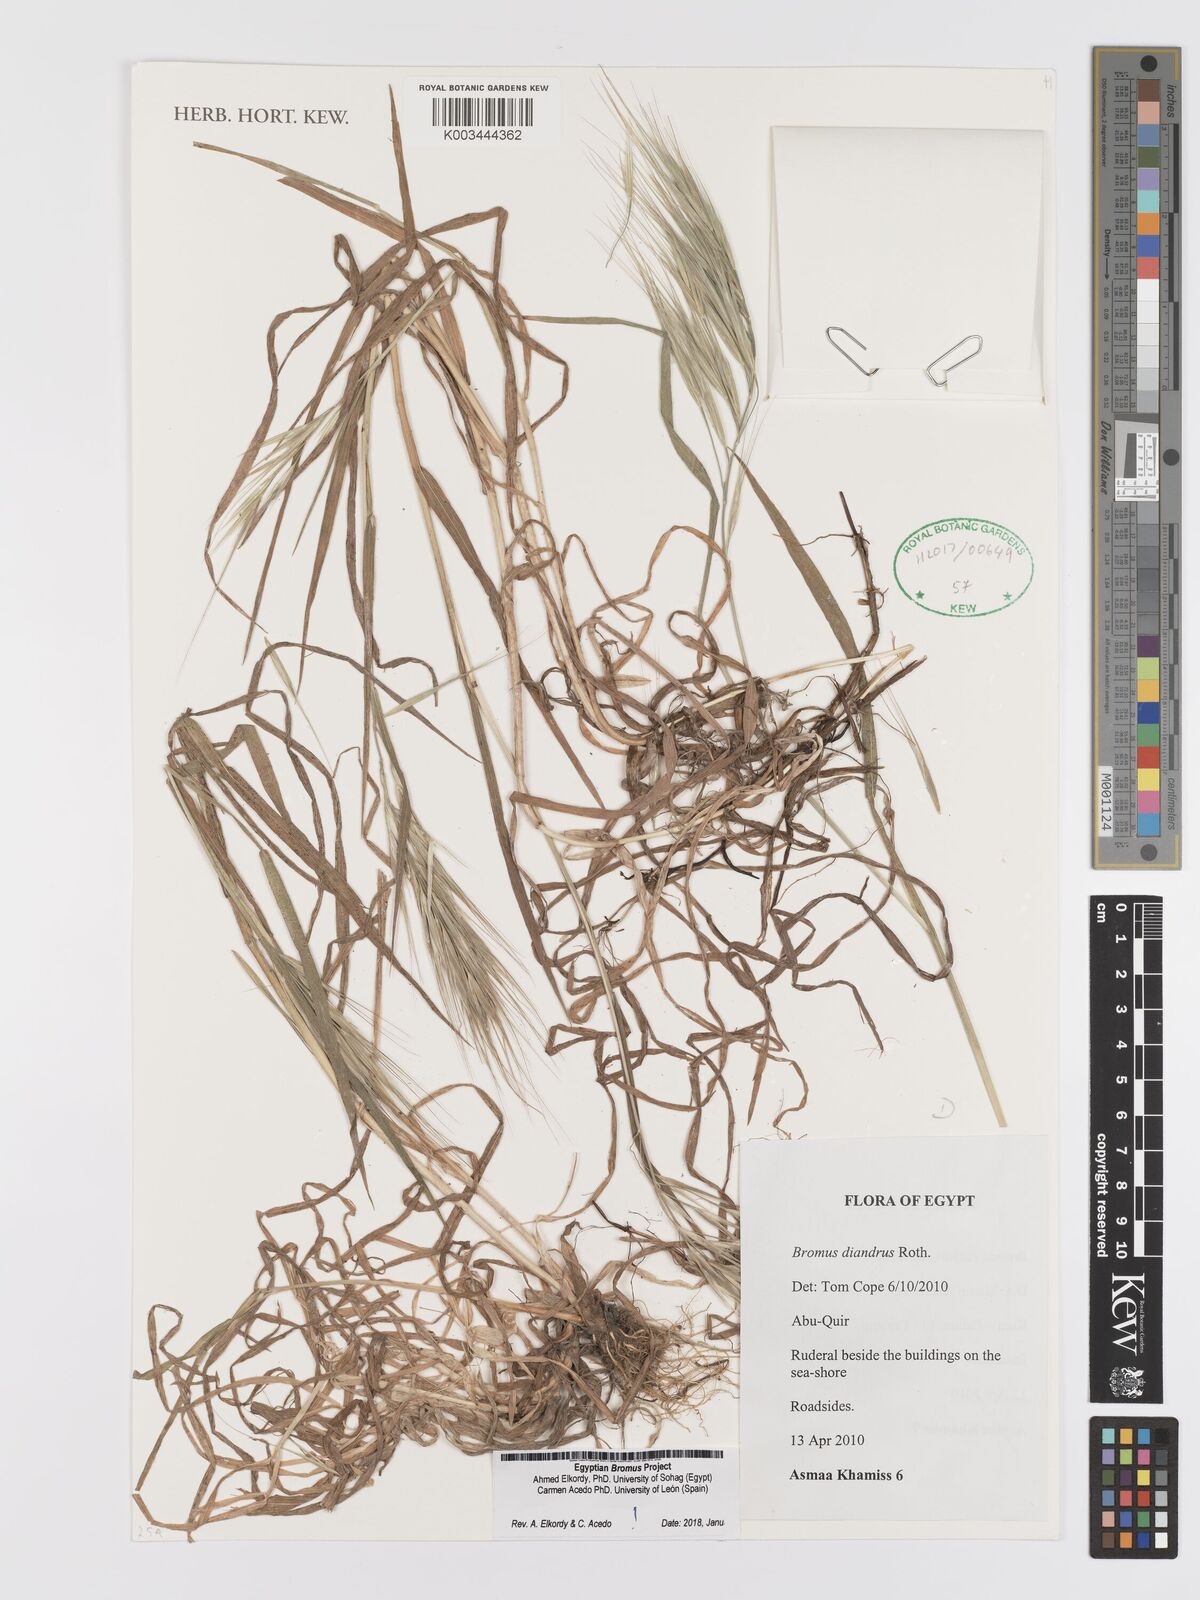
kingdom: Plantae
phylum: Tracheophyta
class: Liliopsida
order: Poales
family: Poaceae
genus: Bromus
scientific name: Bromus diandrus
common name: Ripgut brome
